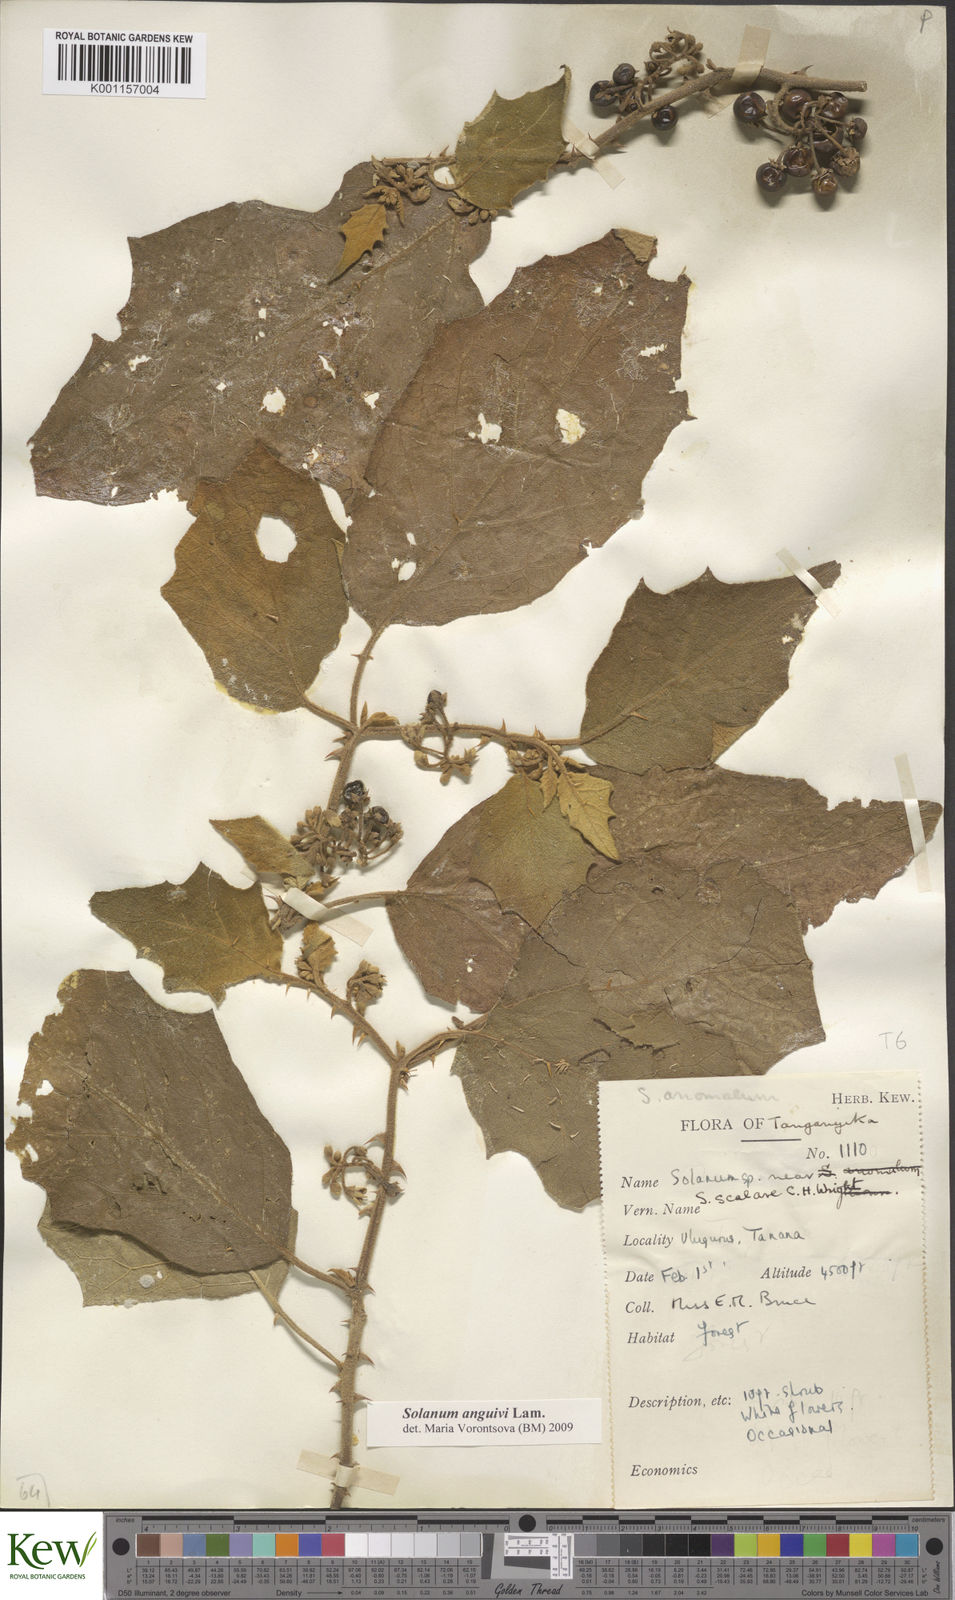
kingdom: Plantae
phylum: Tracheophyta
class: Magnoliopsida
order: Solanales
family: Solanaceae
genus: Solanum
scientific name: Solanum anguivi
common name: Forest bitterberry
